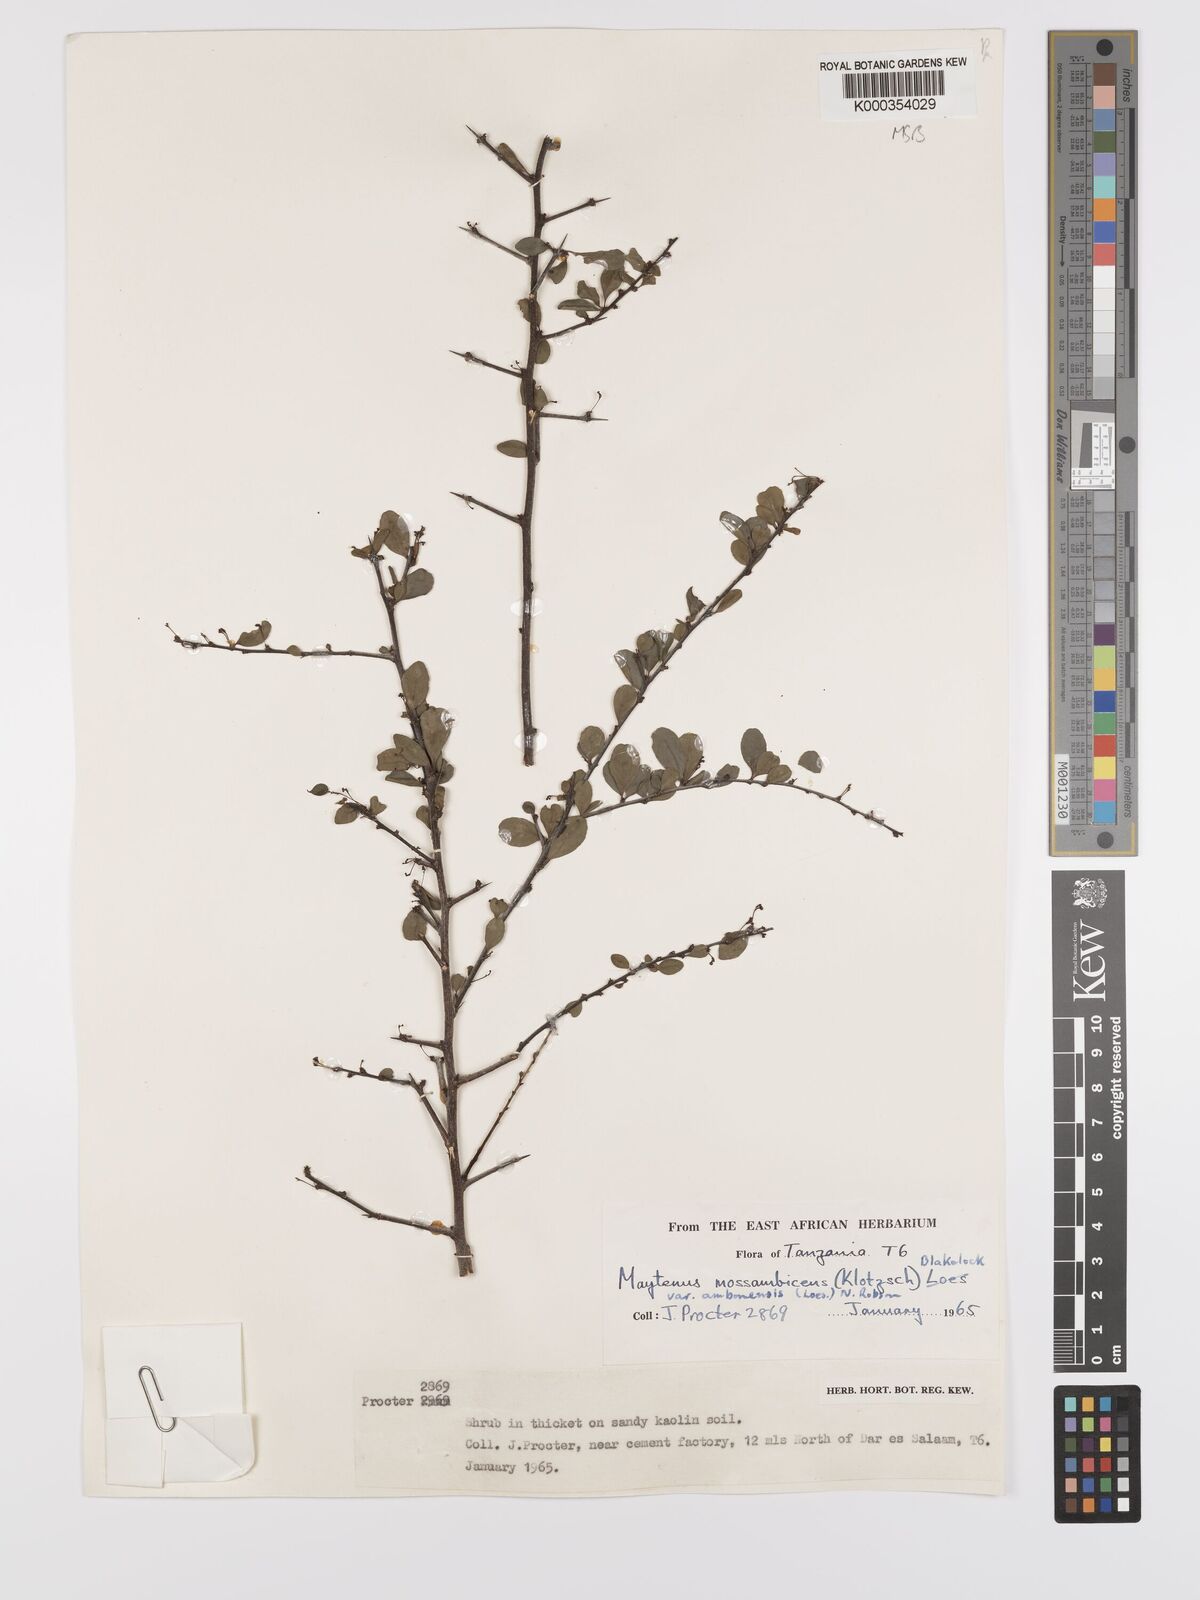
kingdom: Plantae
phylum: Tracheophyta
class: Magnoliopsida
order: Celastrales
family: Celastraceae
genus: Gymnosporia
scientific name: Gymnosporia mossambicensis
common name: Black forest spike-thorn
